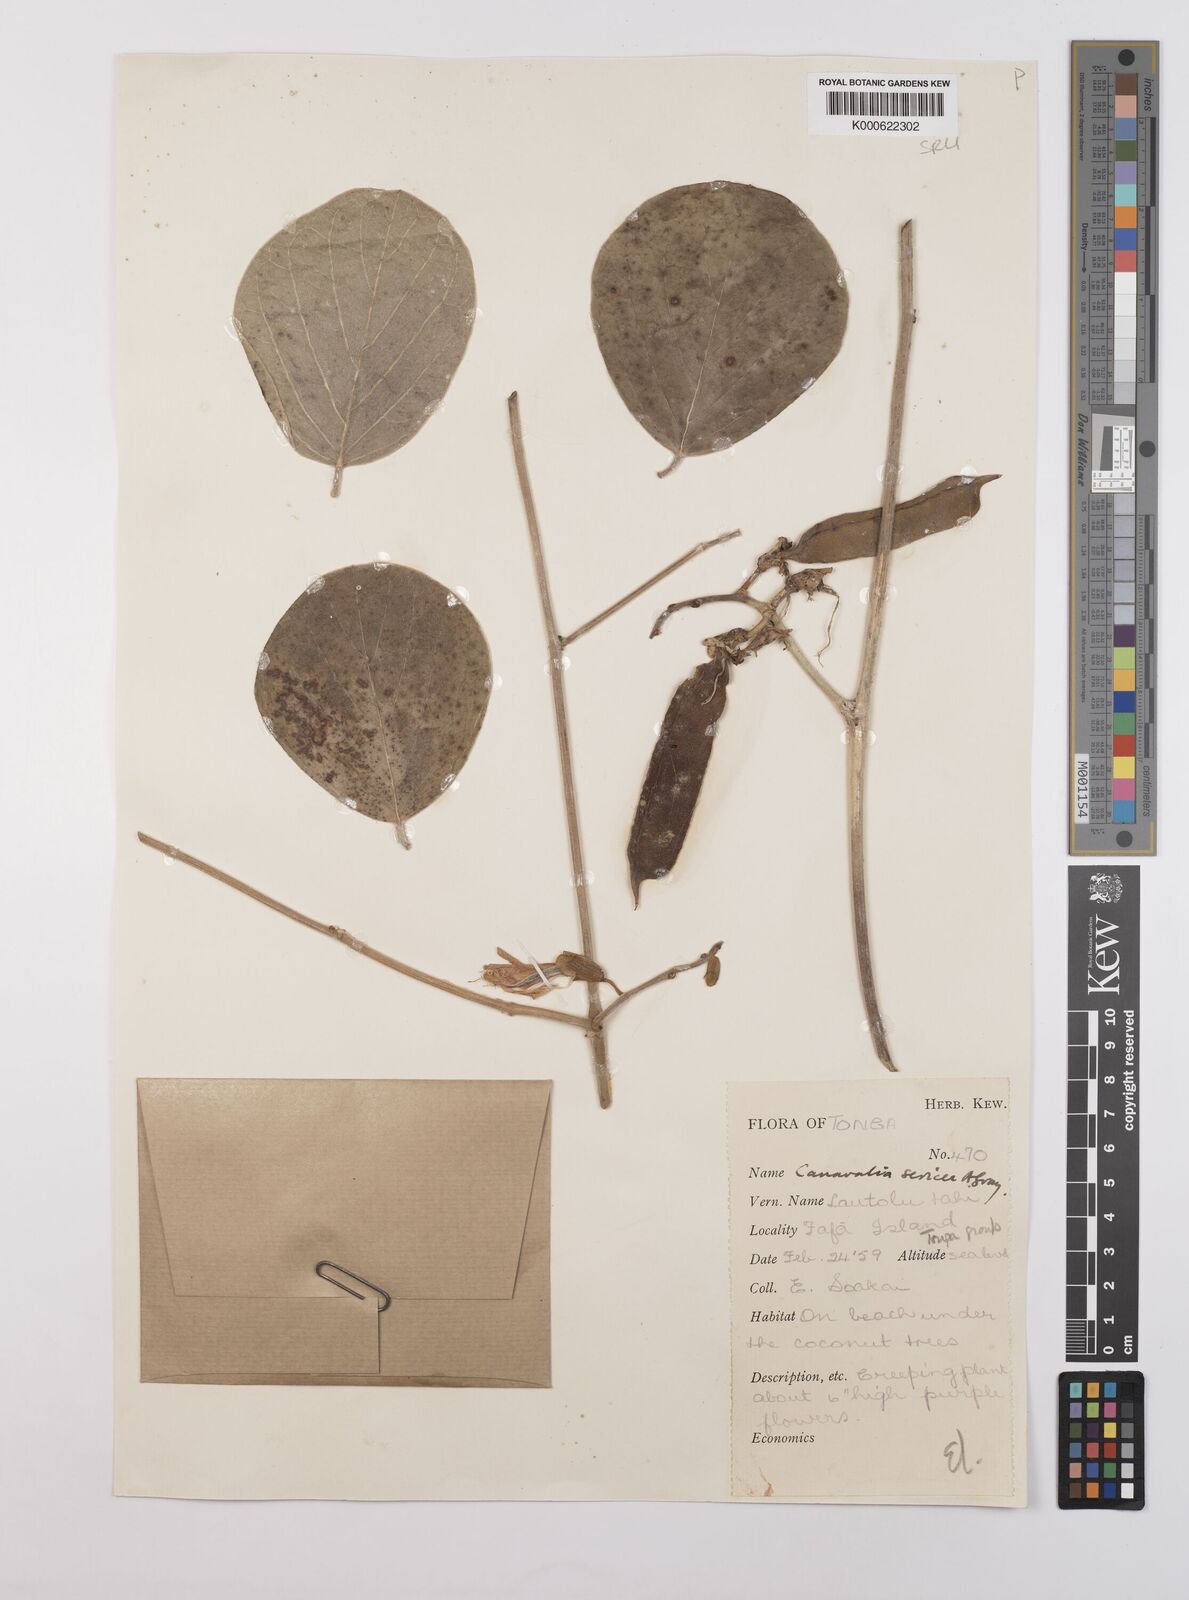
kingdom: Plantae
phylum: Tracheophyta
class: Magnoliopsida
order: Fabales
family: Fabaceae
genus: Canavalia
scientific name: Canavalia sericea
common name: Silky jackbean
